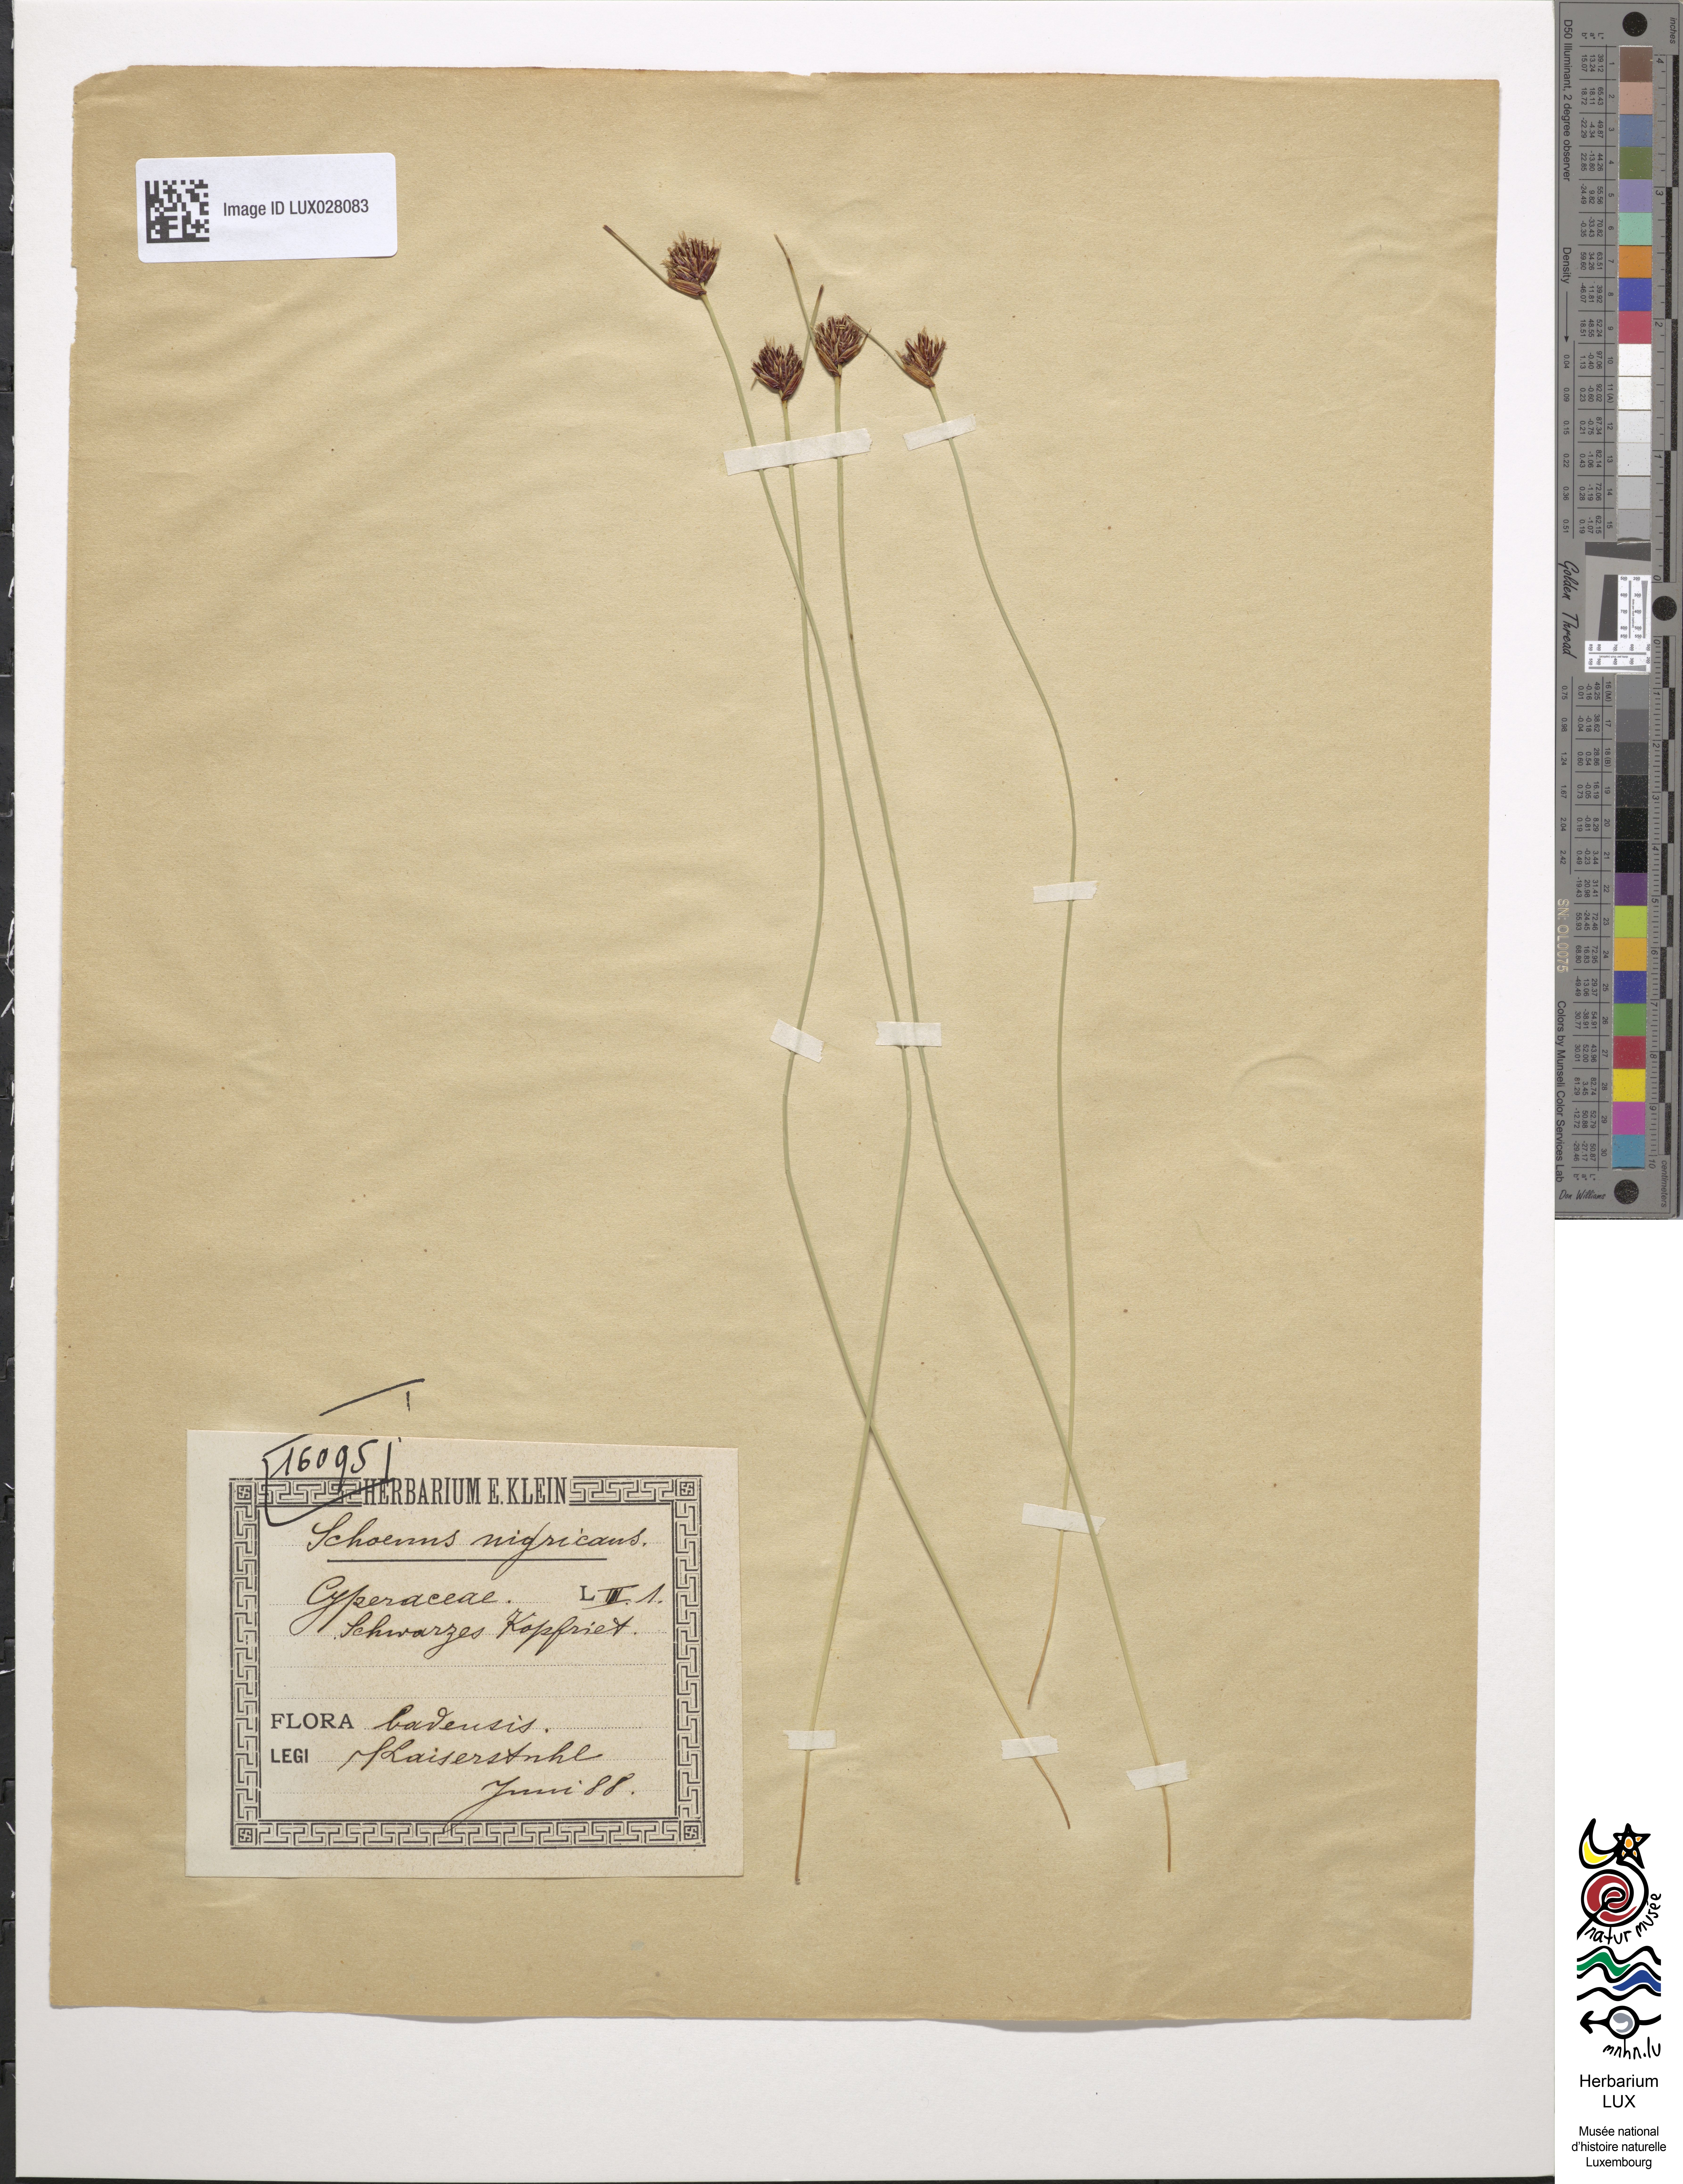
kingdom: Plantae
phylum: Tracheophyta
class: Liliopsida
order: Poales
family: Cyperaceae
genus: Schoenus
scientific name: Schoenus nigricans
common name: Black bog-rush
